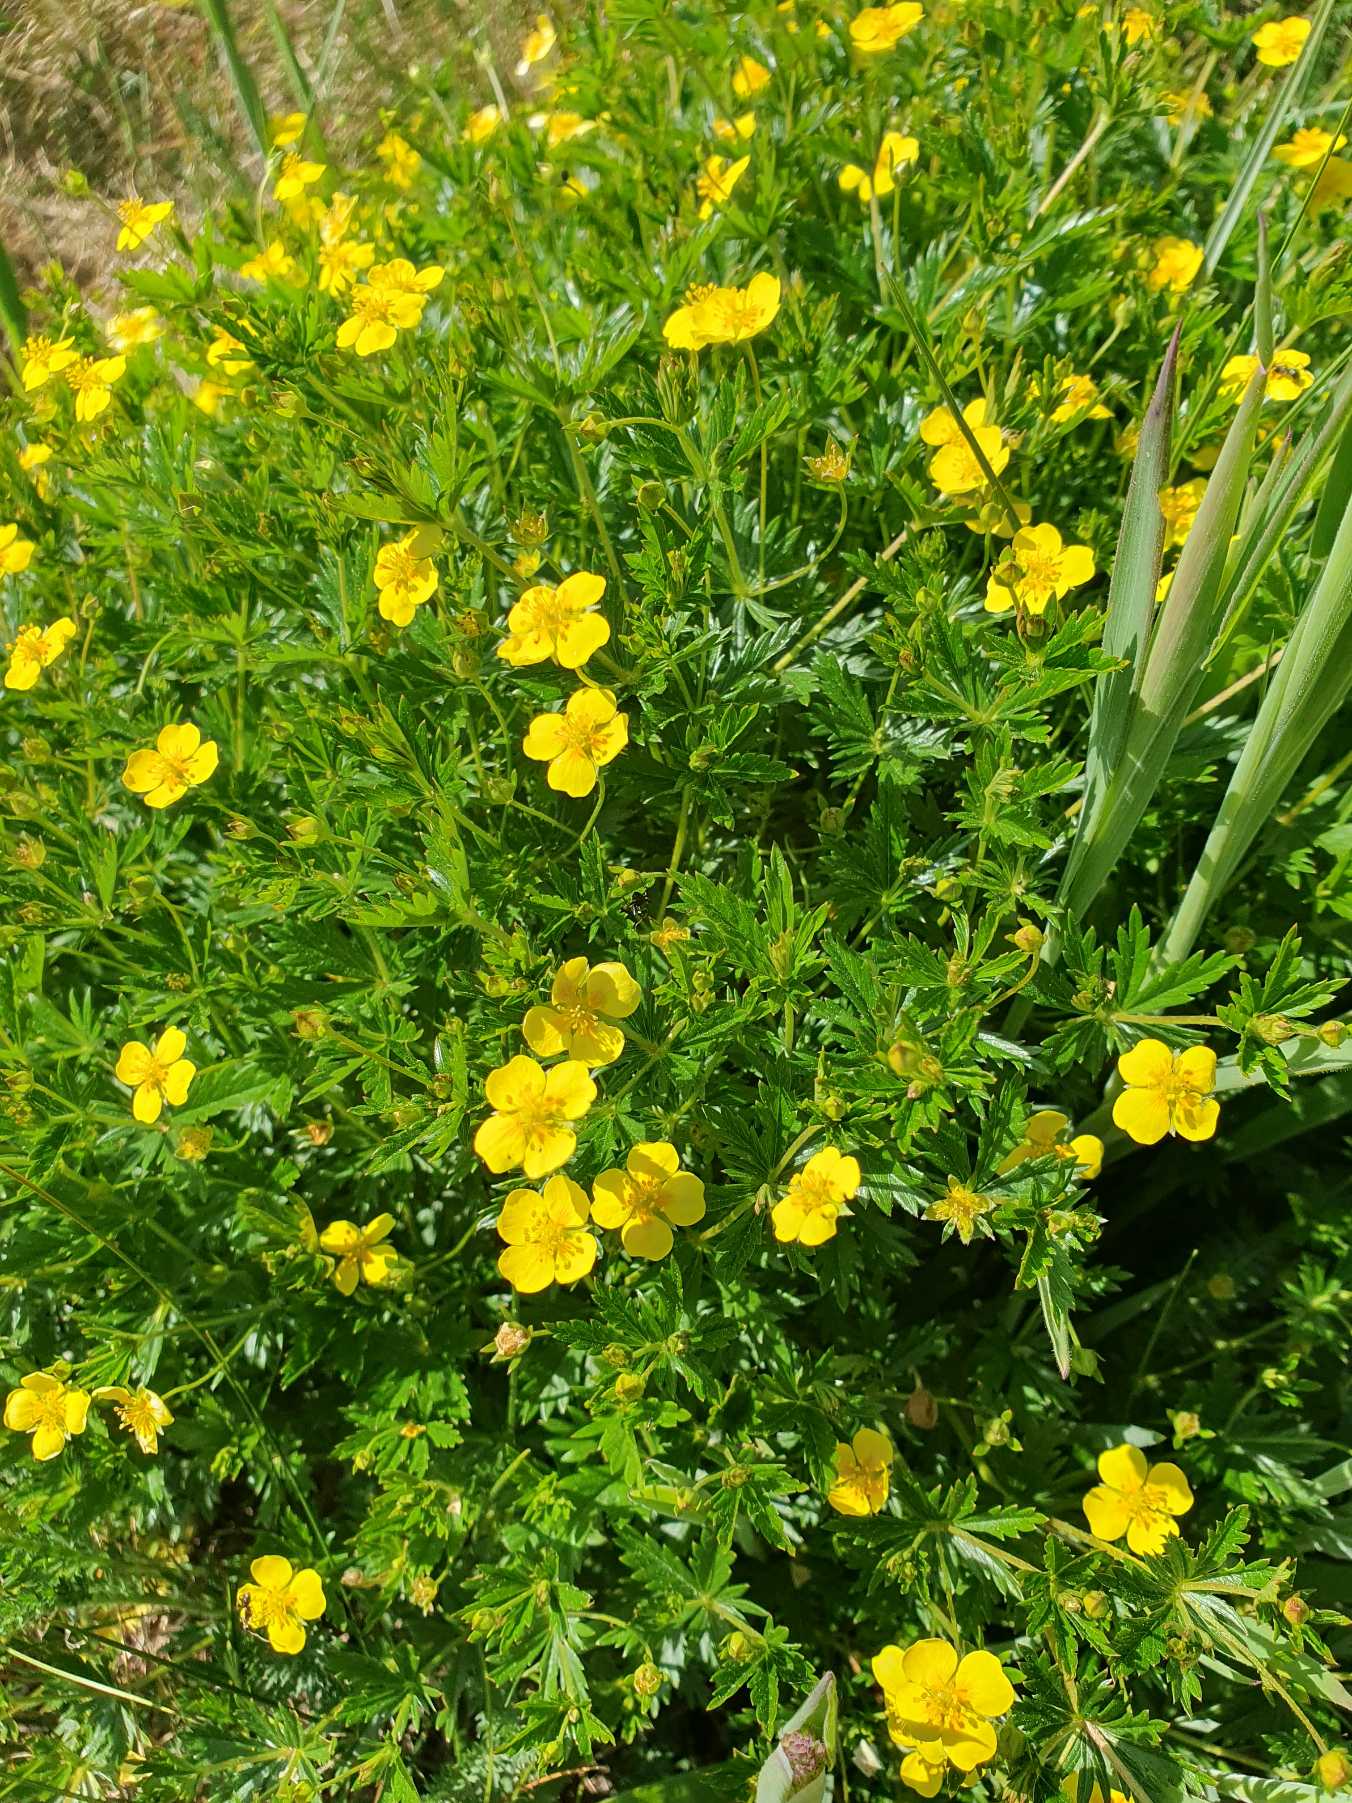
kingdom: Plantae
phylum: Tracheophyta
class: Magnoliopsida
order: Rosales
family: Rosaceae
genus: Potentilla
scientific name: Potentilla erecta
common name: Tormentil
